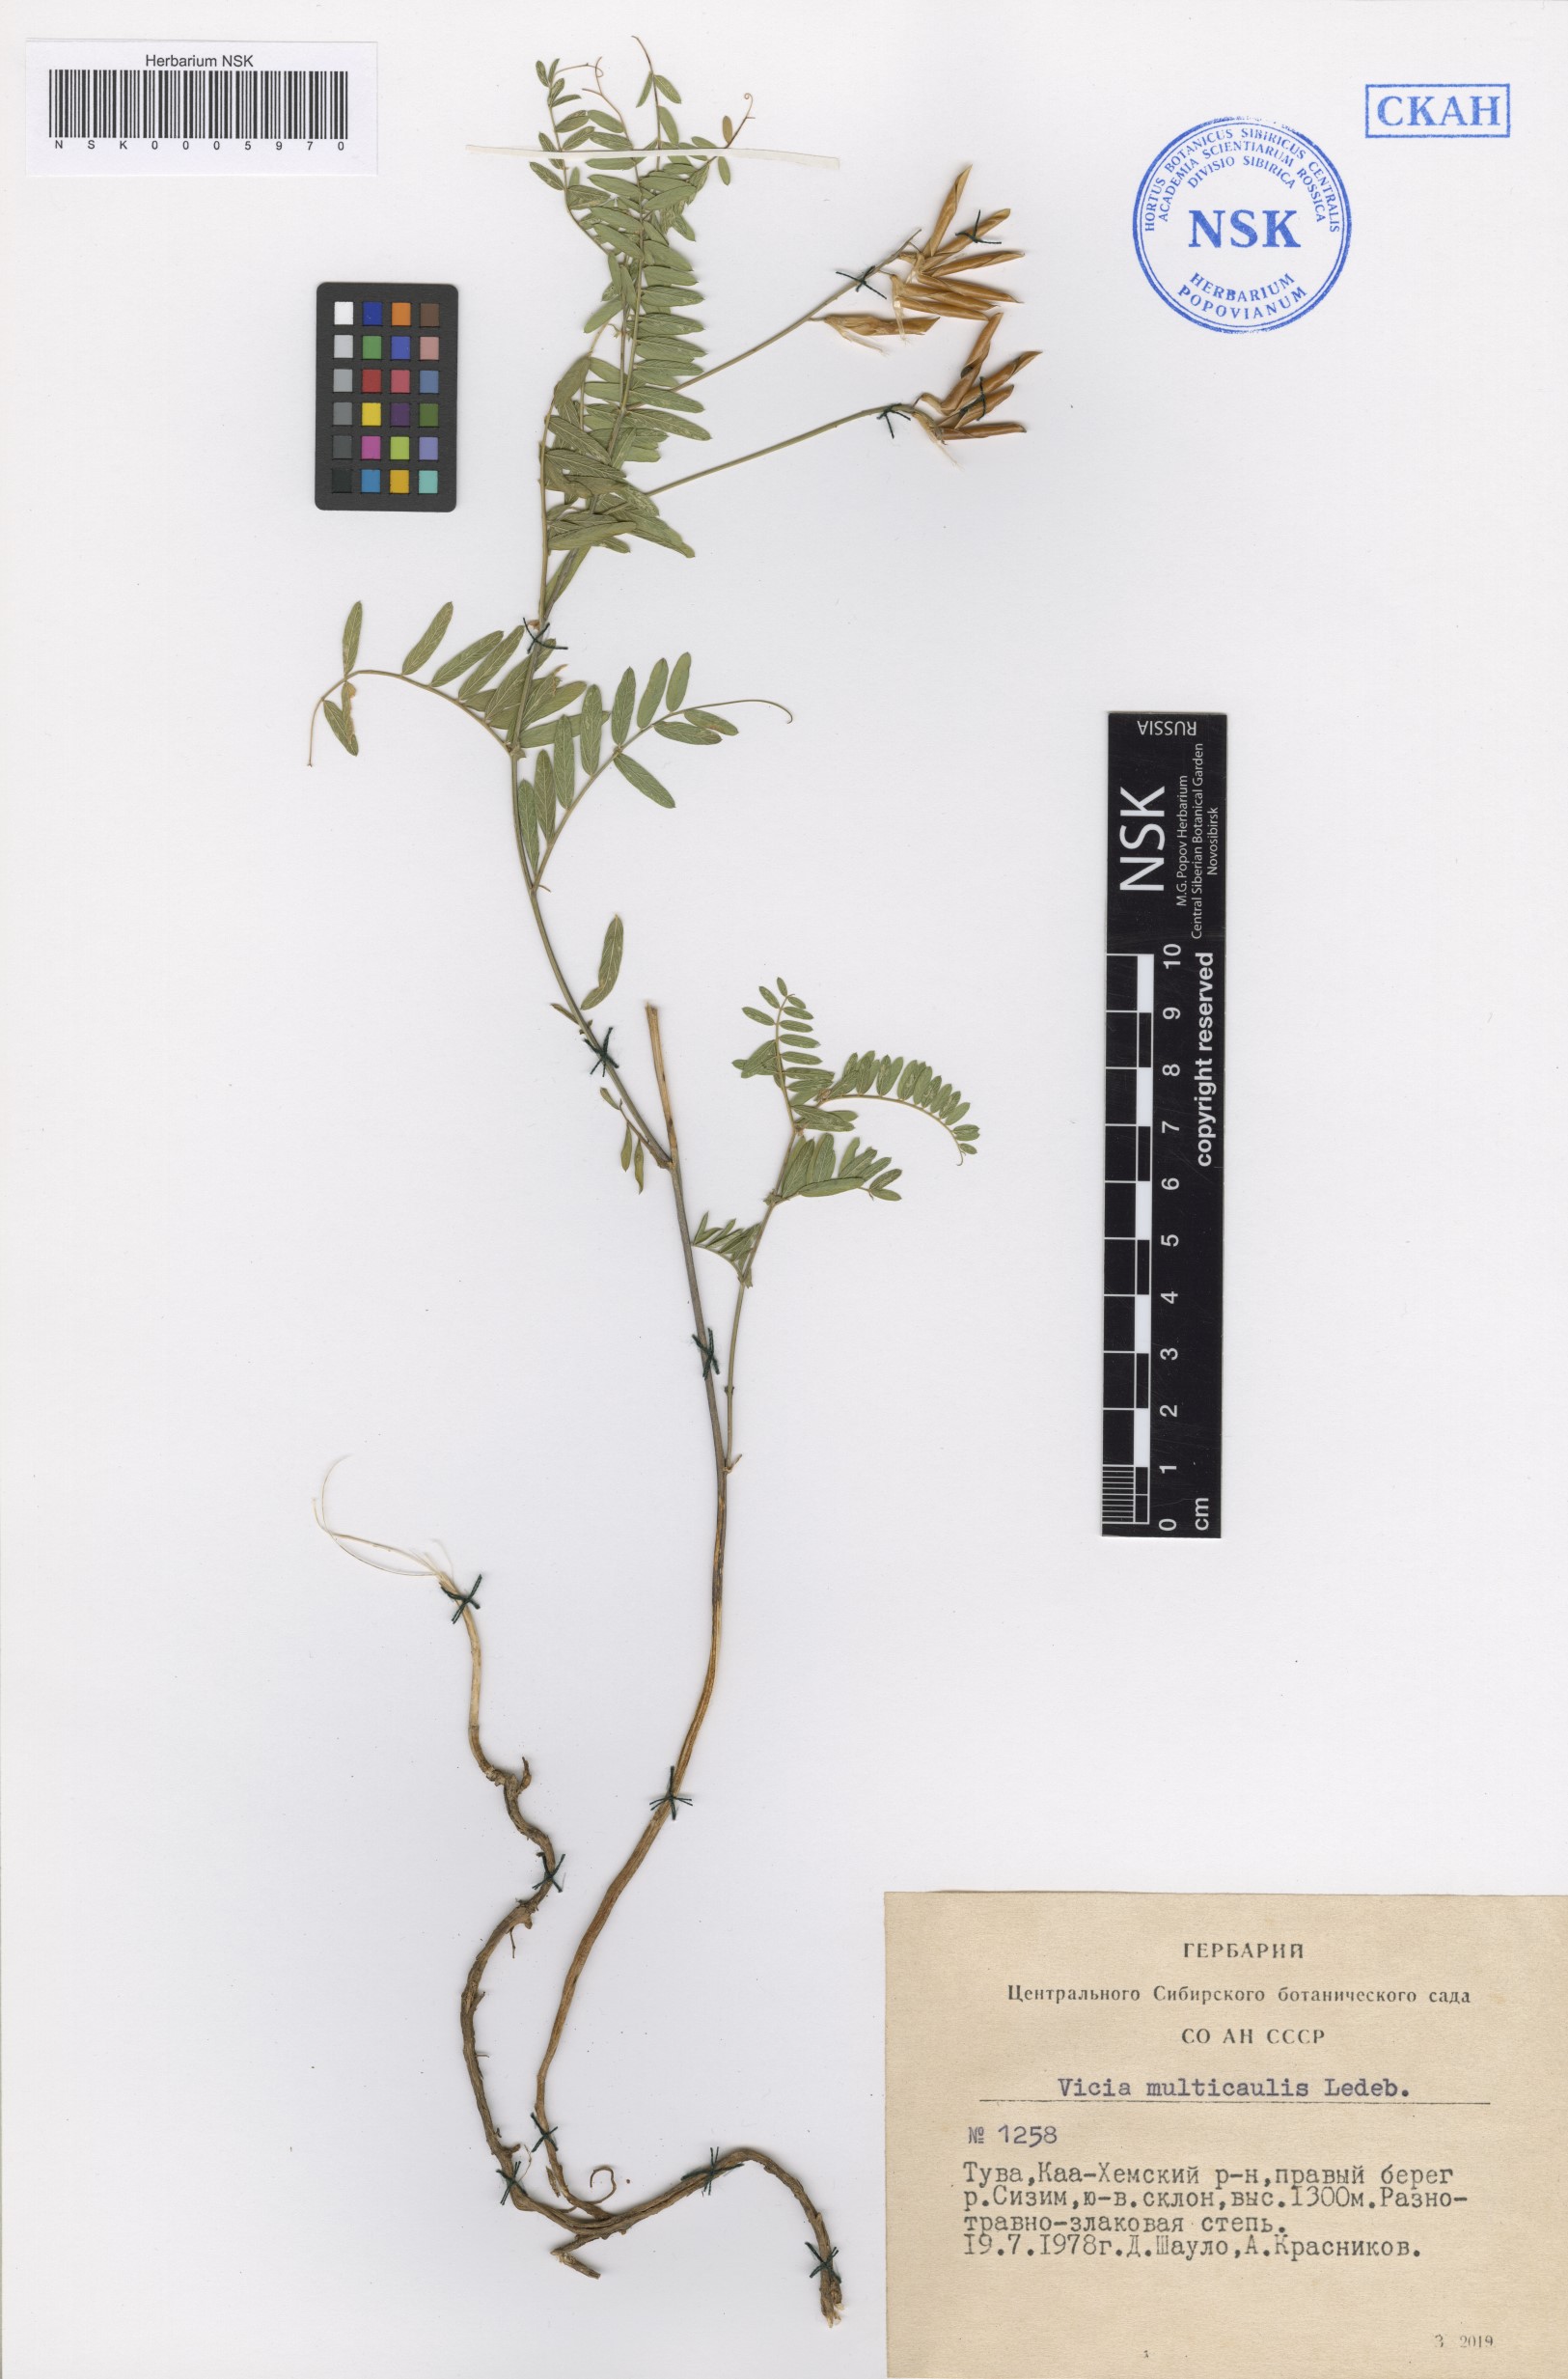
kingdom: Plantae
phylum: Tracheophyta
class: Magnoliopsida
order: Fabales
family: Fabaceae
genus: Vicia
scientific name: Vicia multicaulis
